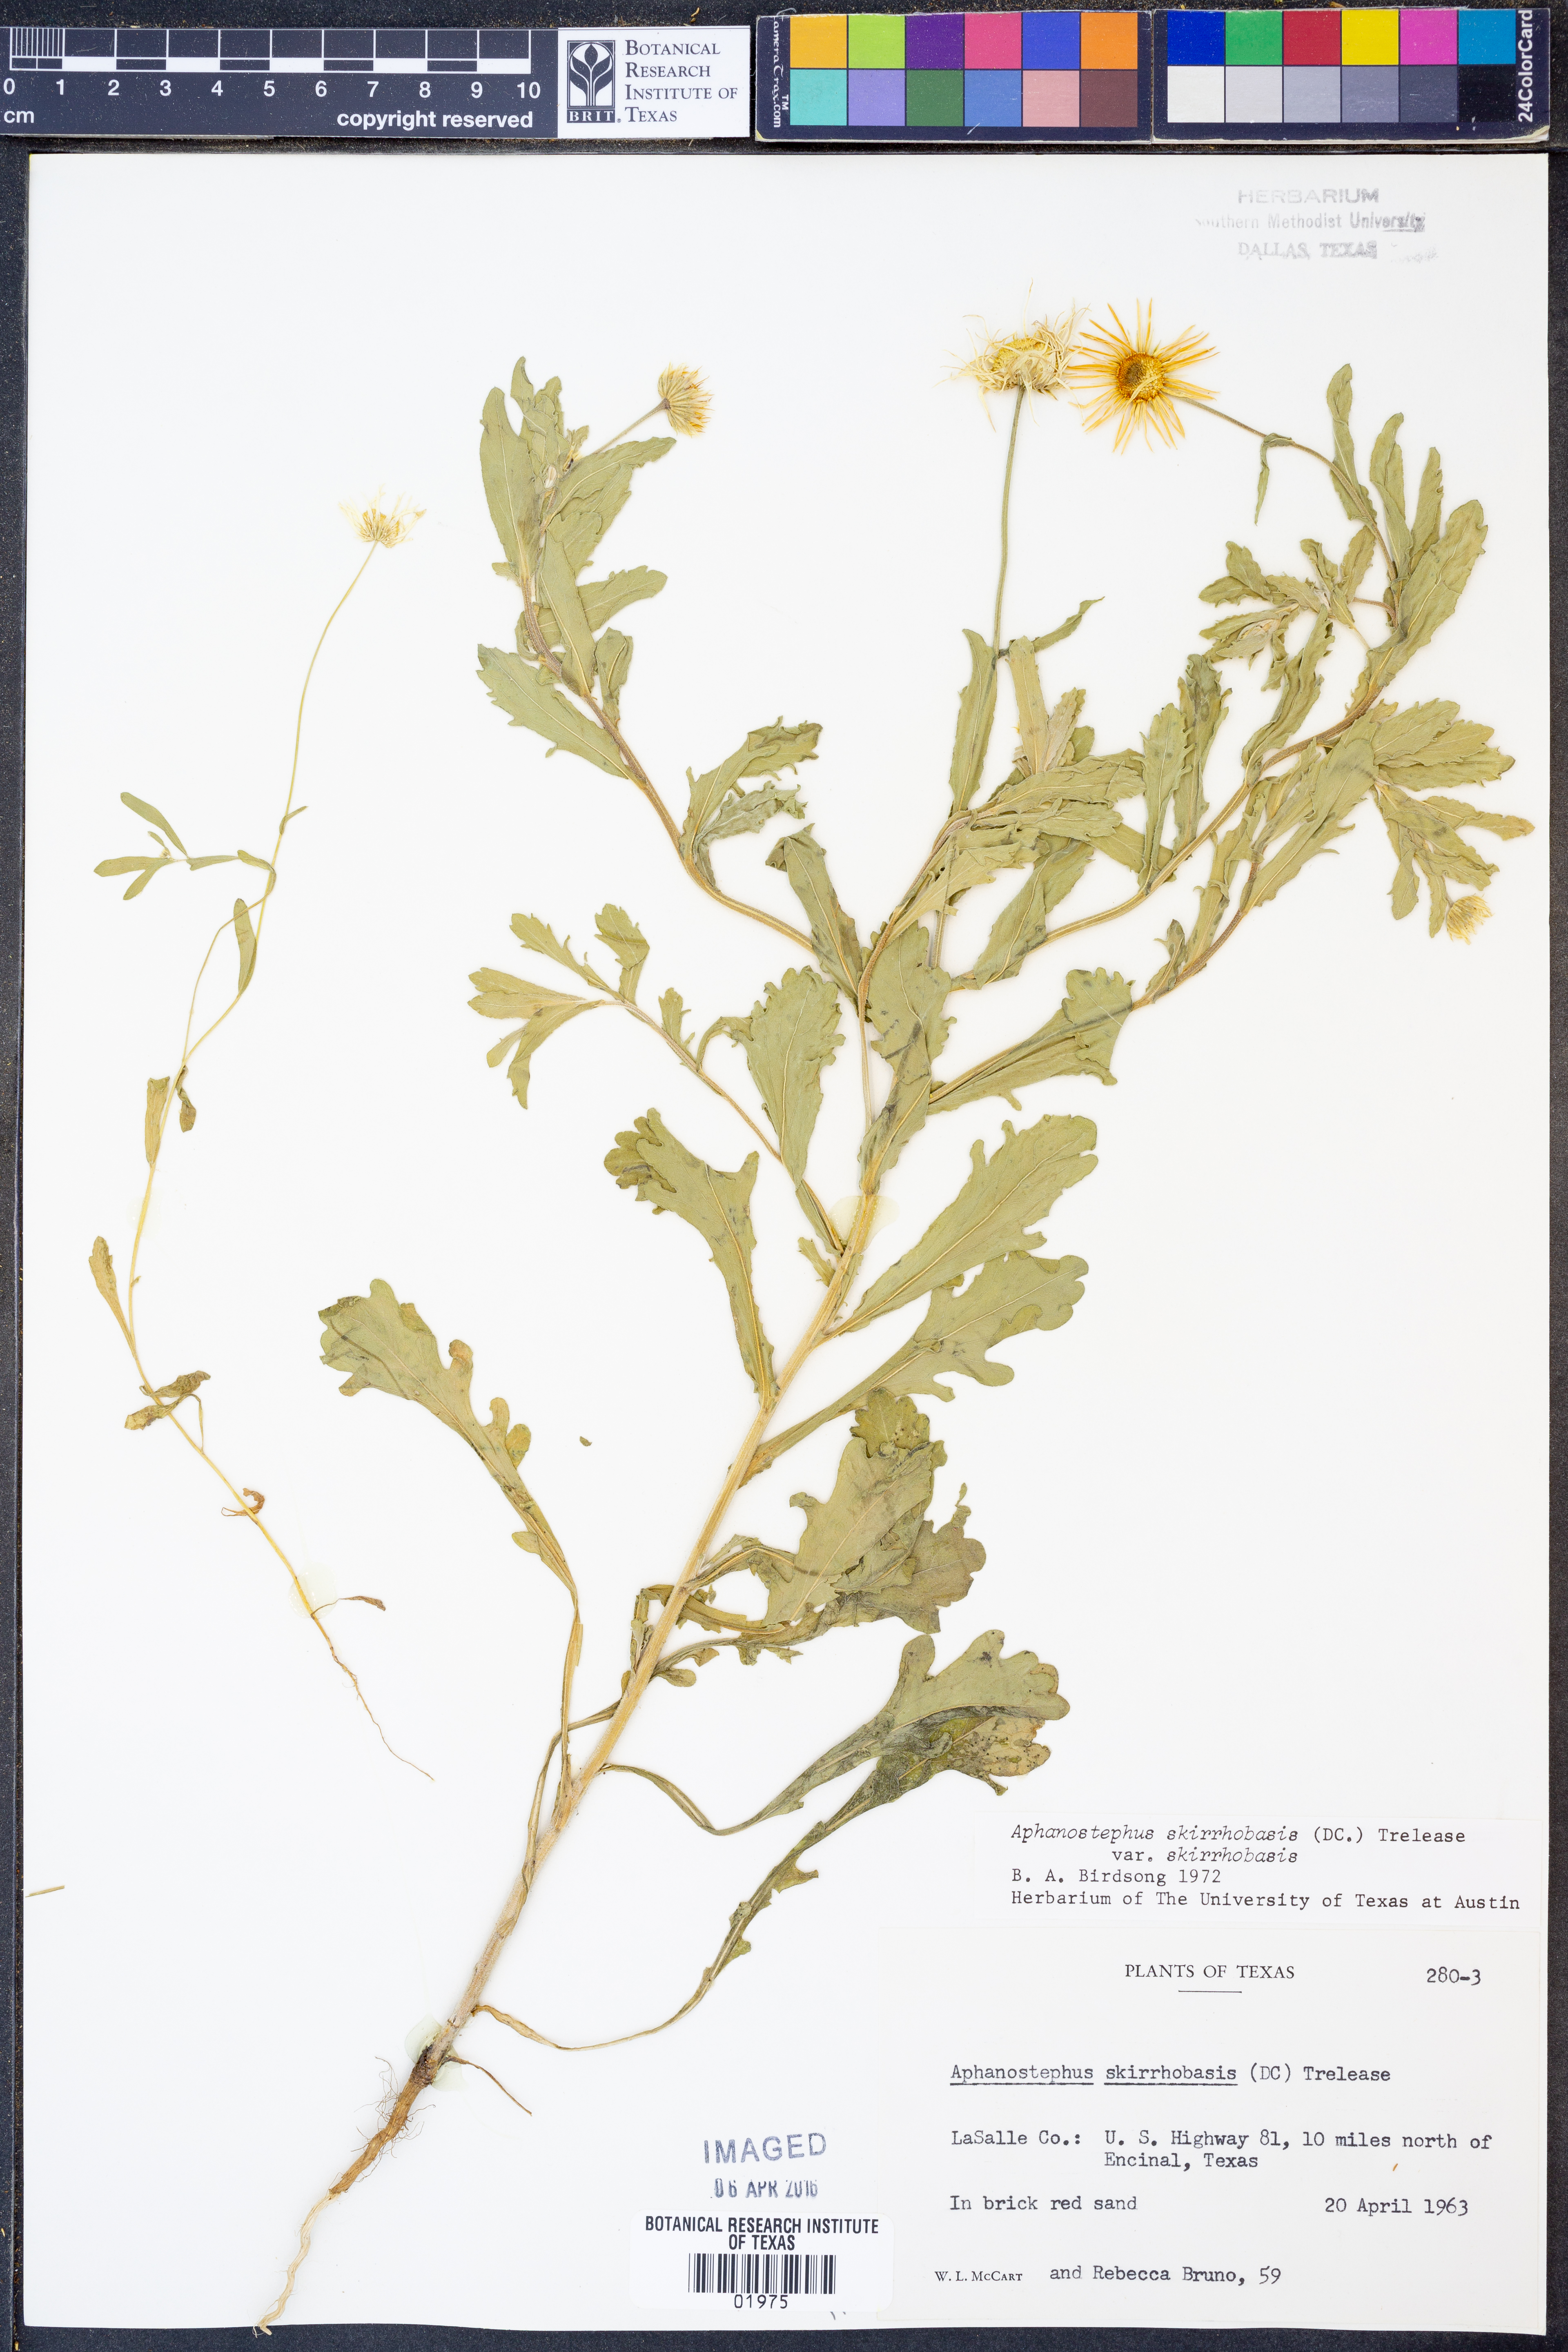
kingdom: Plantae
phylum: Tracheophyta
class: Magnoliopsida
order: Asterales
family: Asteraceae
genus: Aphanostephus
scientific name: Aphanostephus skirrhobasis
